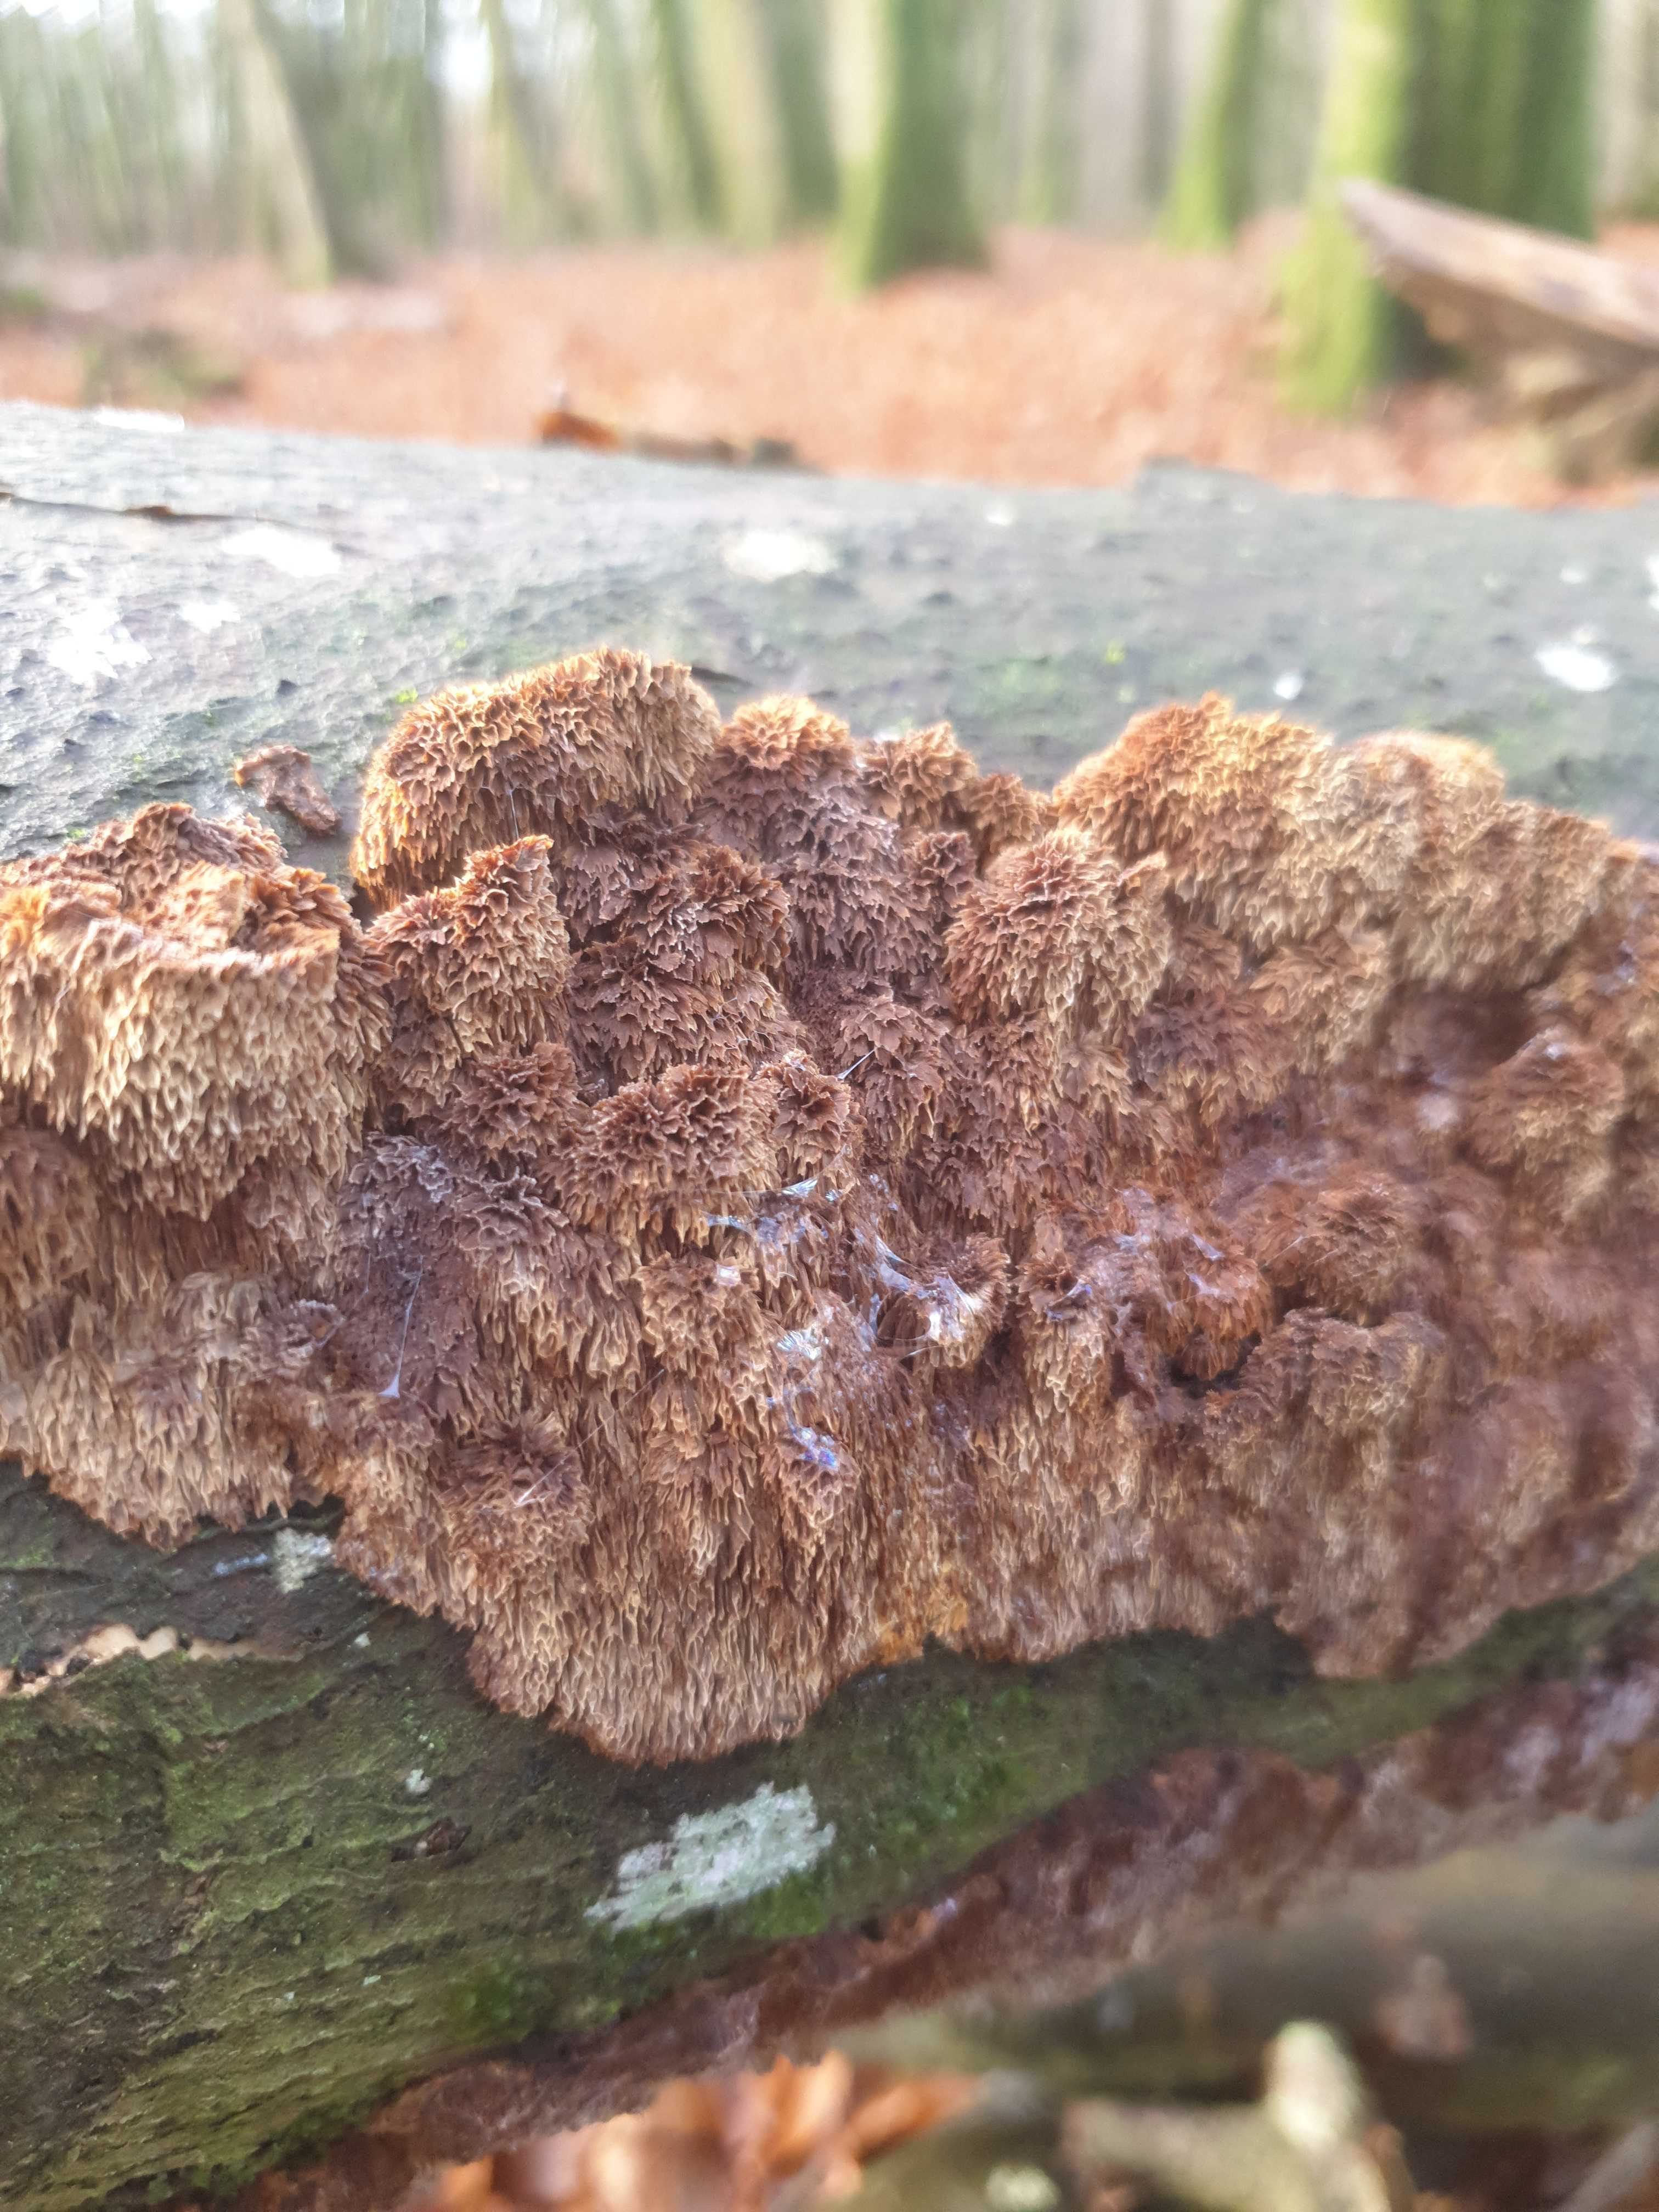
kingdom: Fungi
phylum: Basidiomycota
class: Agaricomycetes
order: Hymenochaetales
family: Hymenochaetaceae
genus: Mensularia
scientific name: Mensularia nodulosa
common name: bøge-spejlporesvamp
